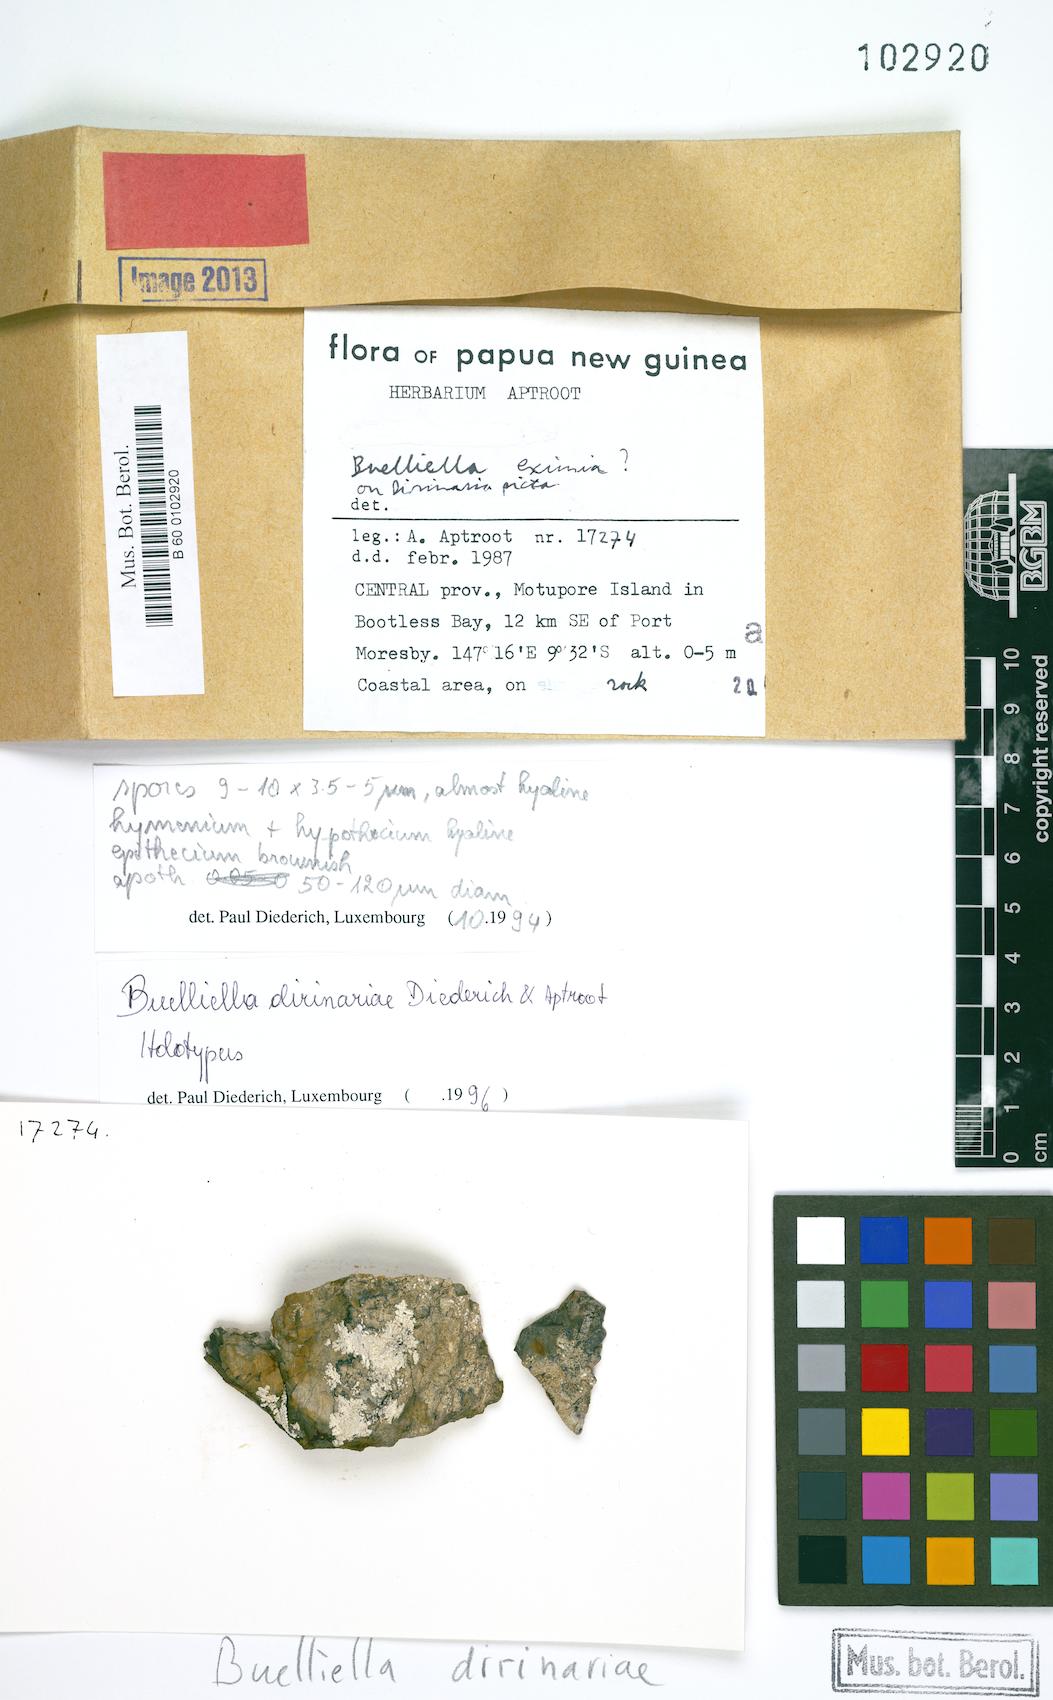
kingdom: Fungi
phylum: Ascomycota
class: Dothideomycetes
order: Dothideales
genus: Buelliella
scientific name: Buelliella dirinariae
